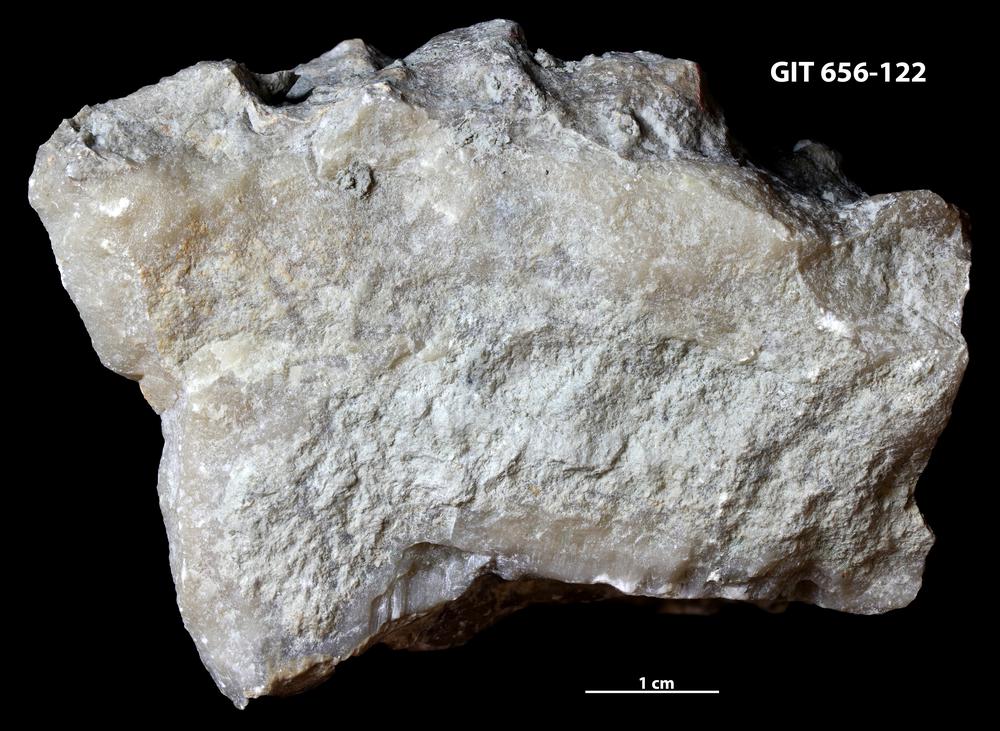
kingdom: Animalia
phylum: Porifera
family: Actinostromatidae
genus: Plectostroma
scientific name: Plectostroma
